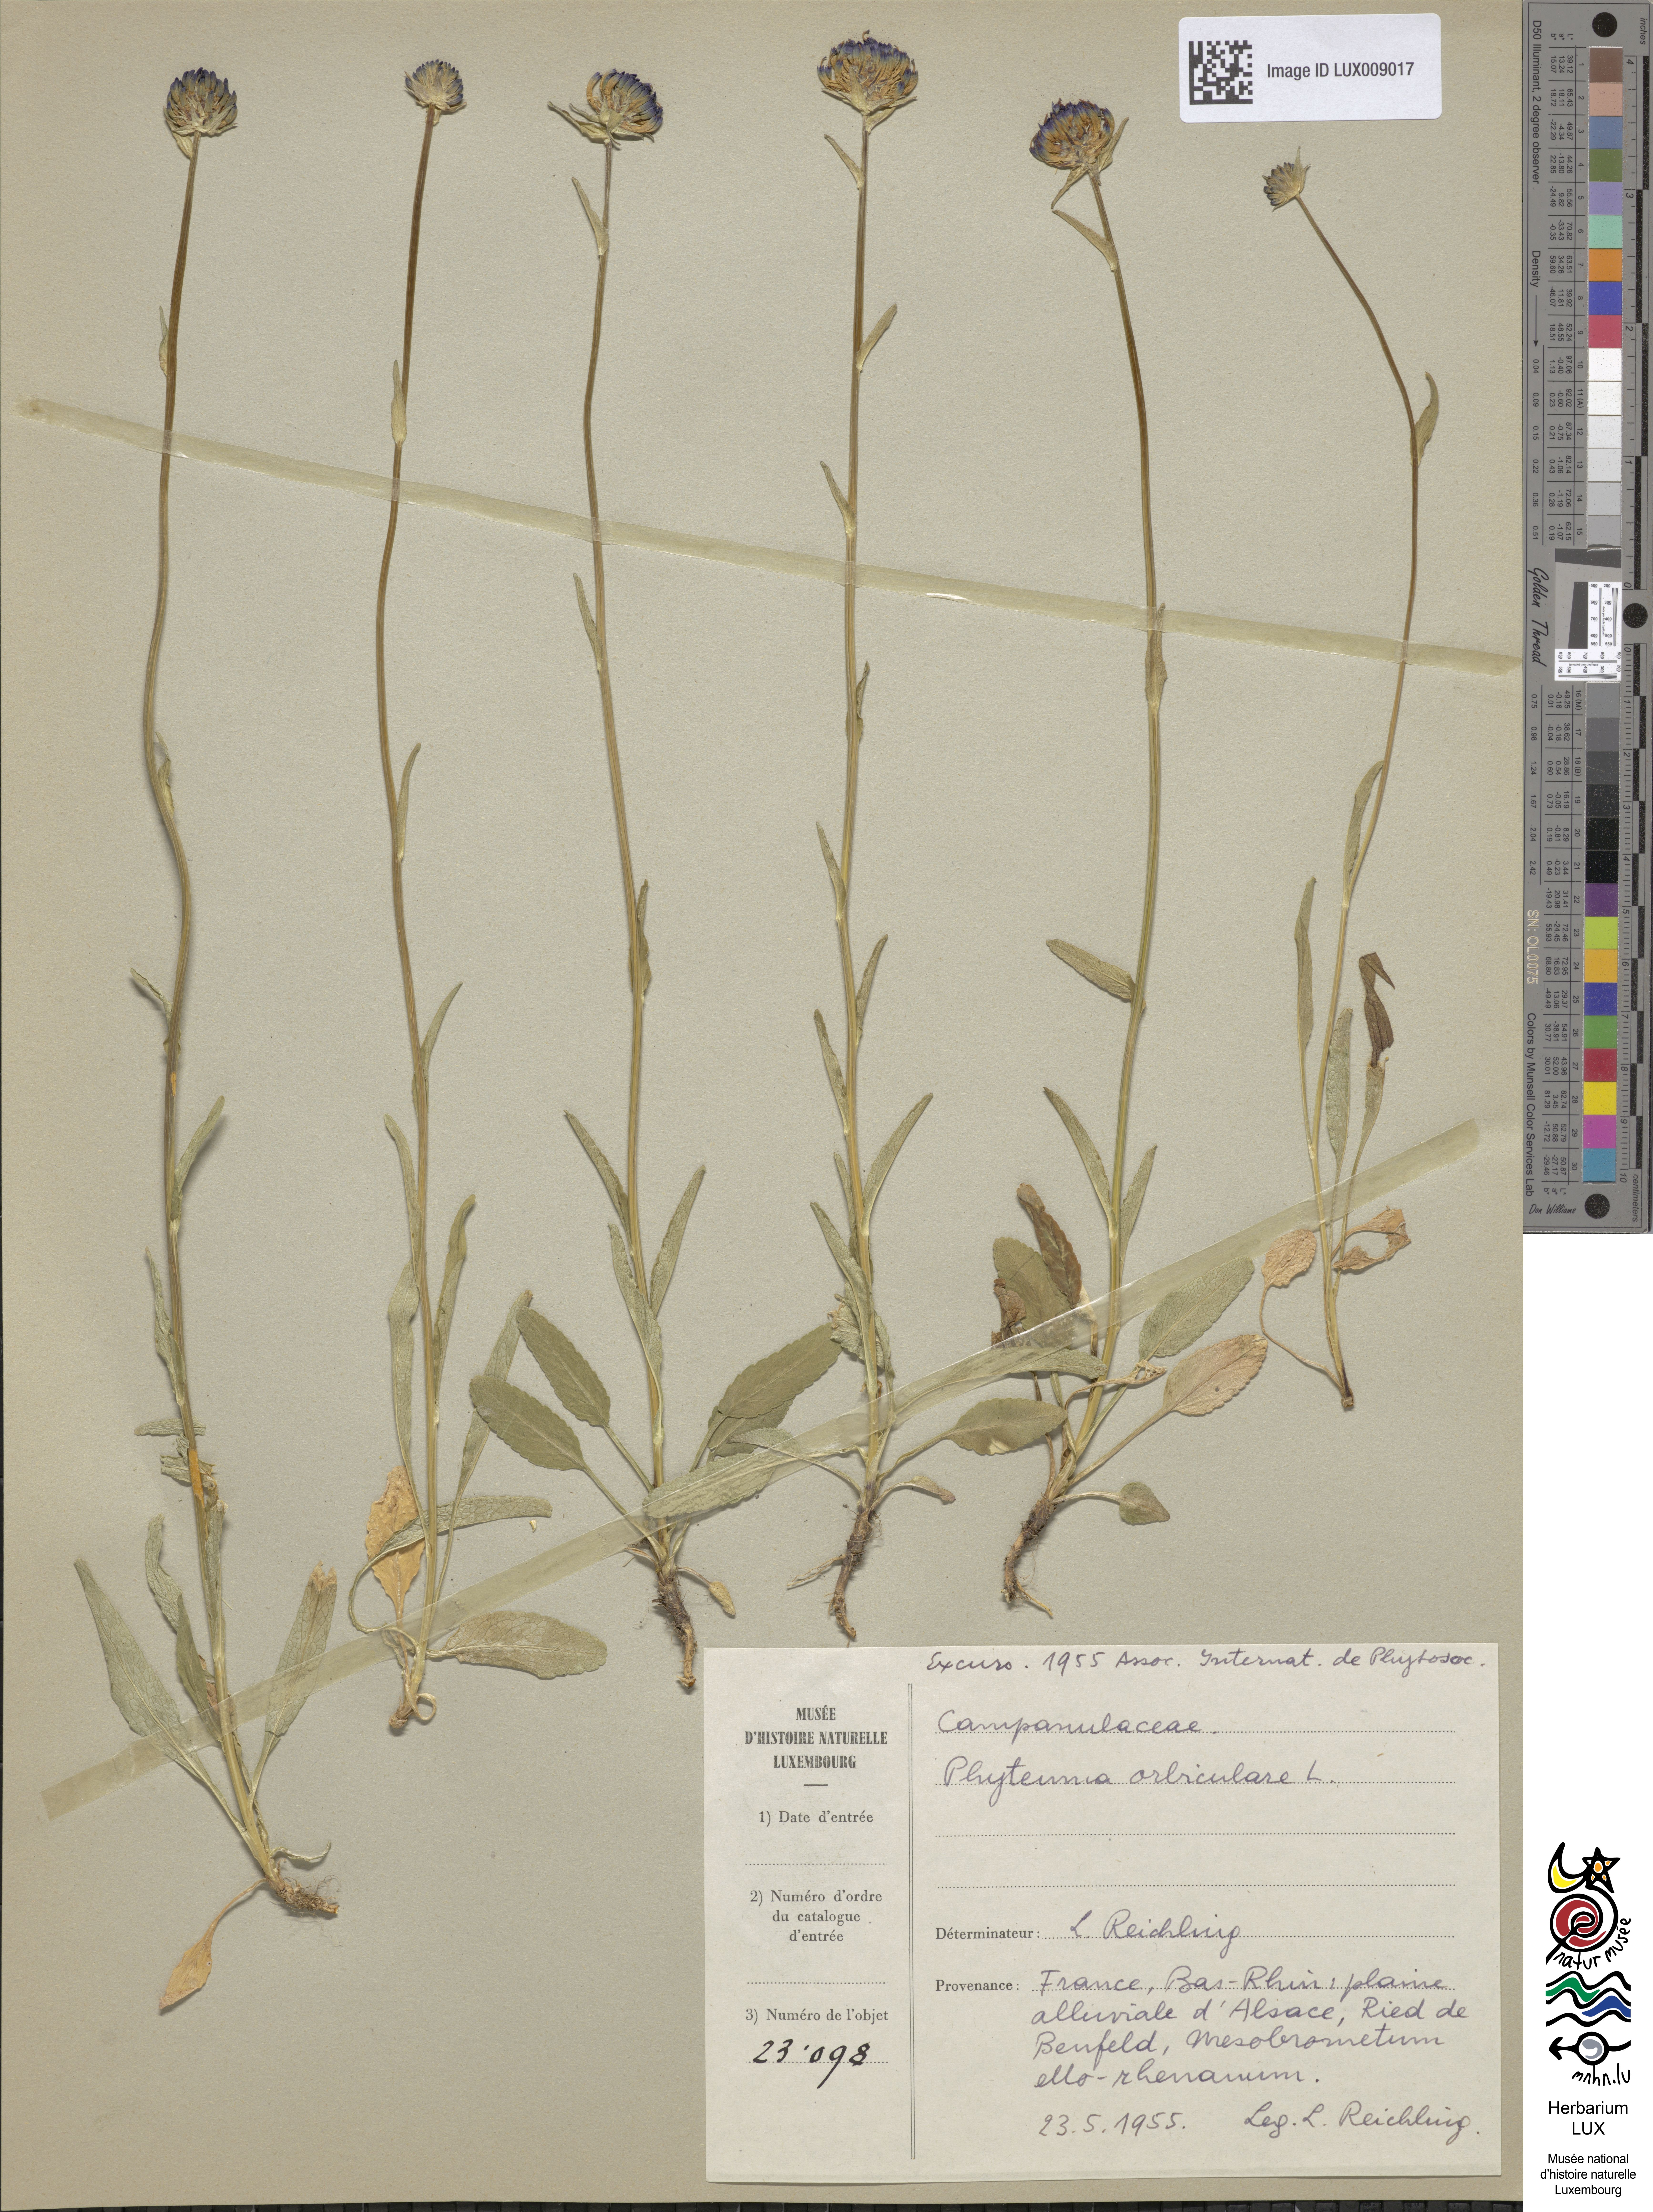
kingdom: Plantae
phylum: Tracheophyta
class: Magnoliopsida
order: Asterales
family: Campanulaceae
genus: Phyteuma
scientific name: Phyteuma orbiculare
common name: Round-headed rampion
